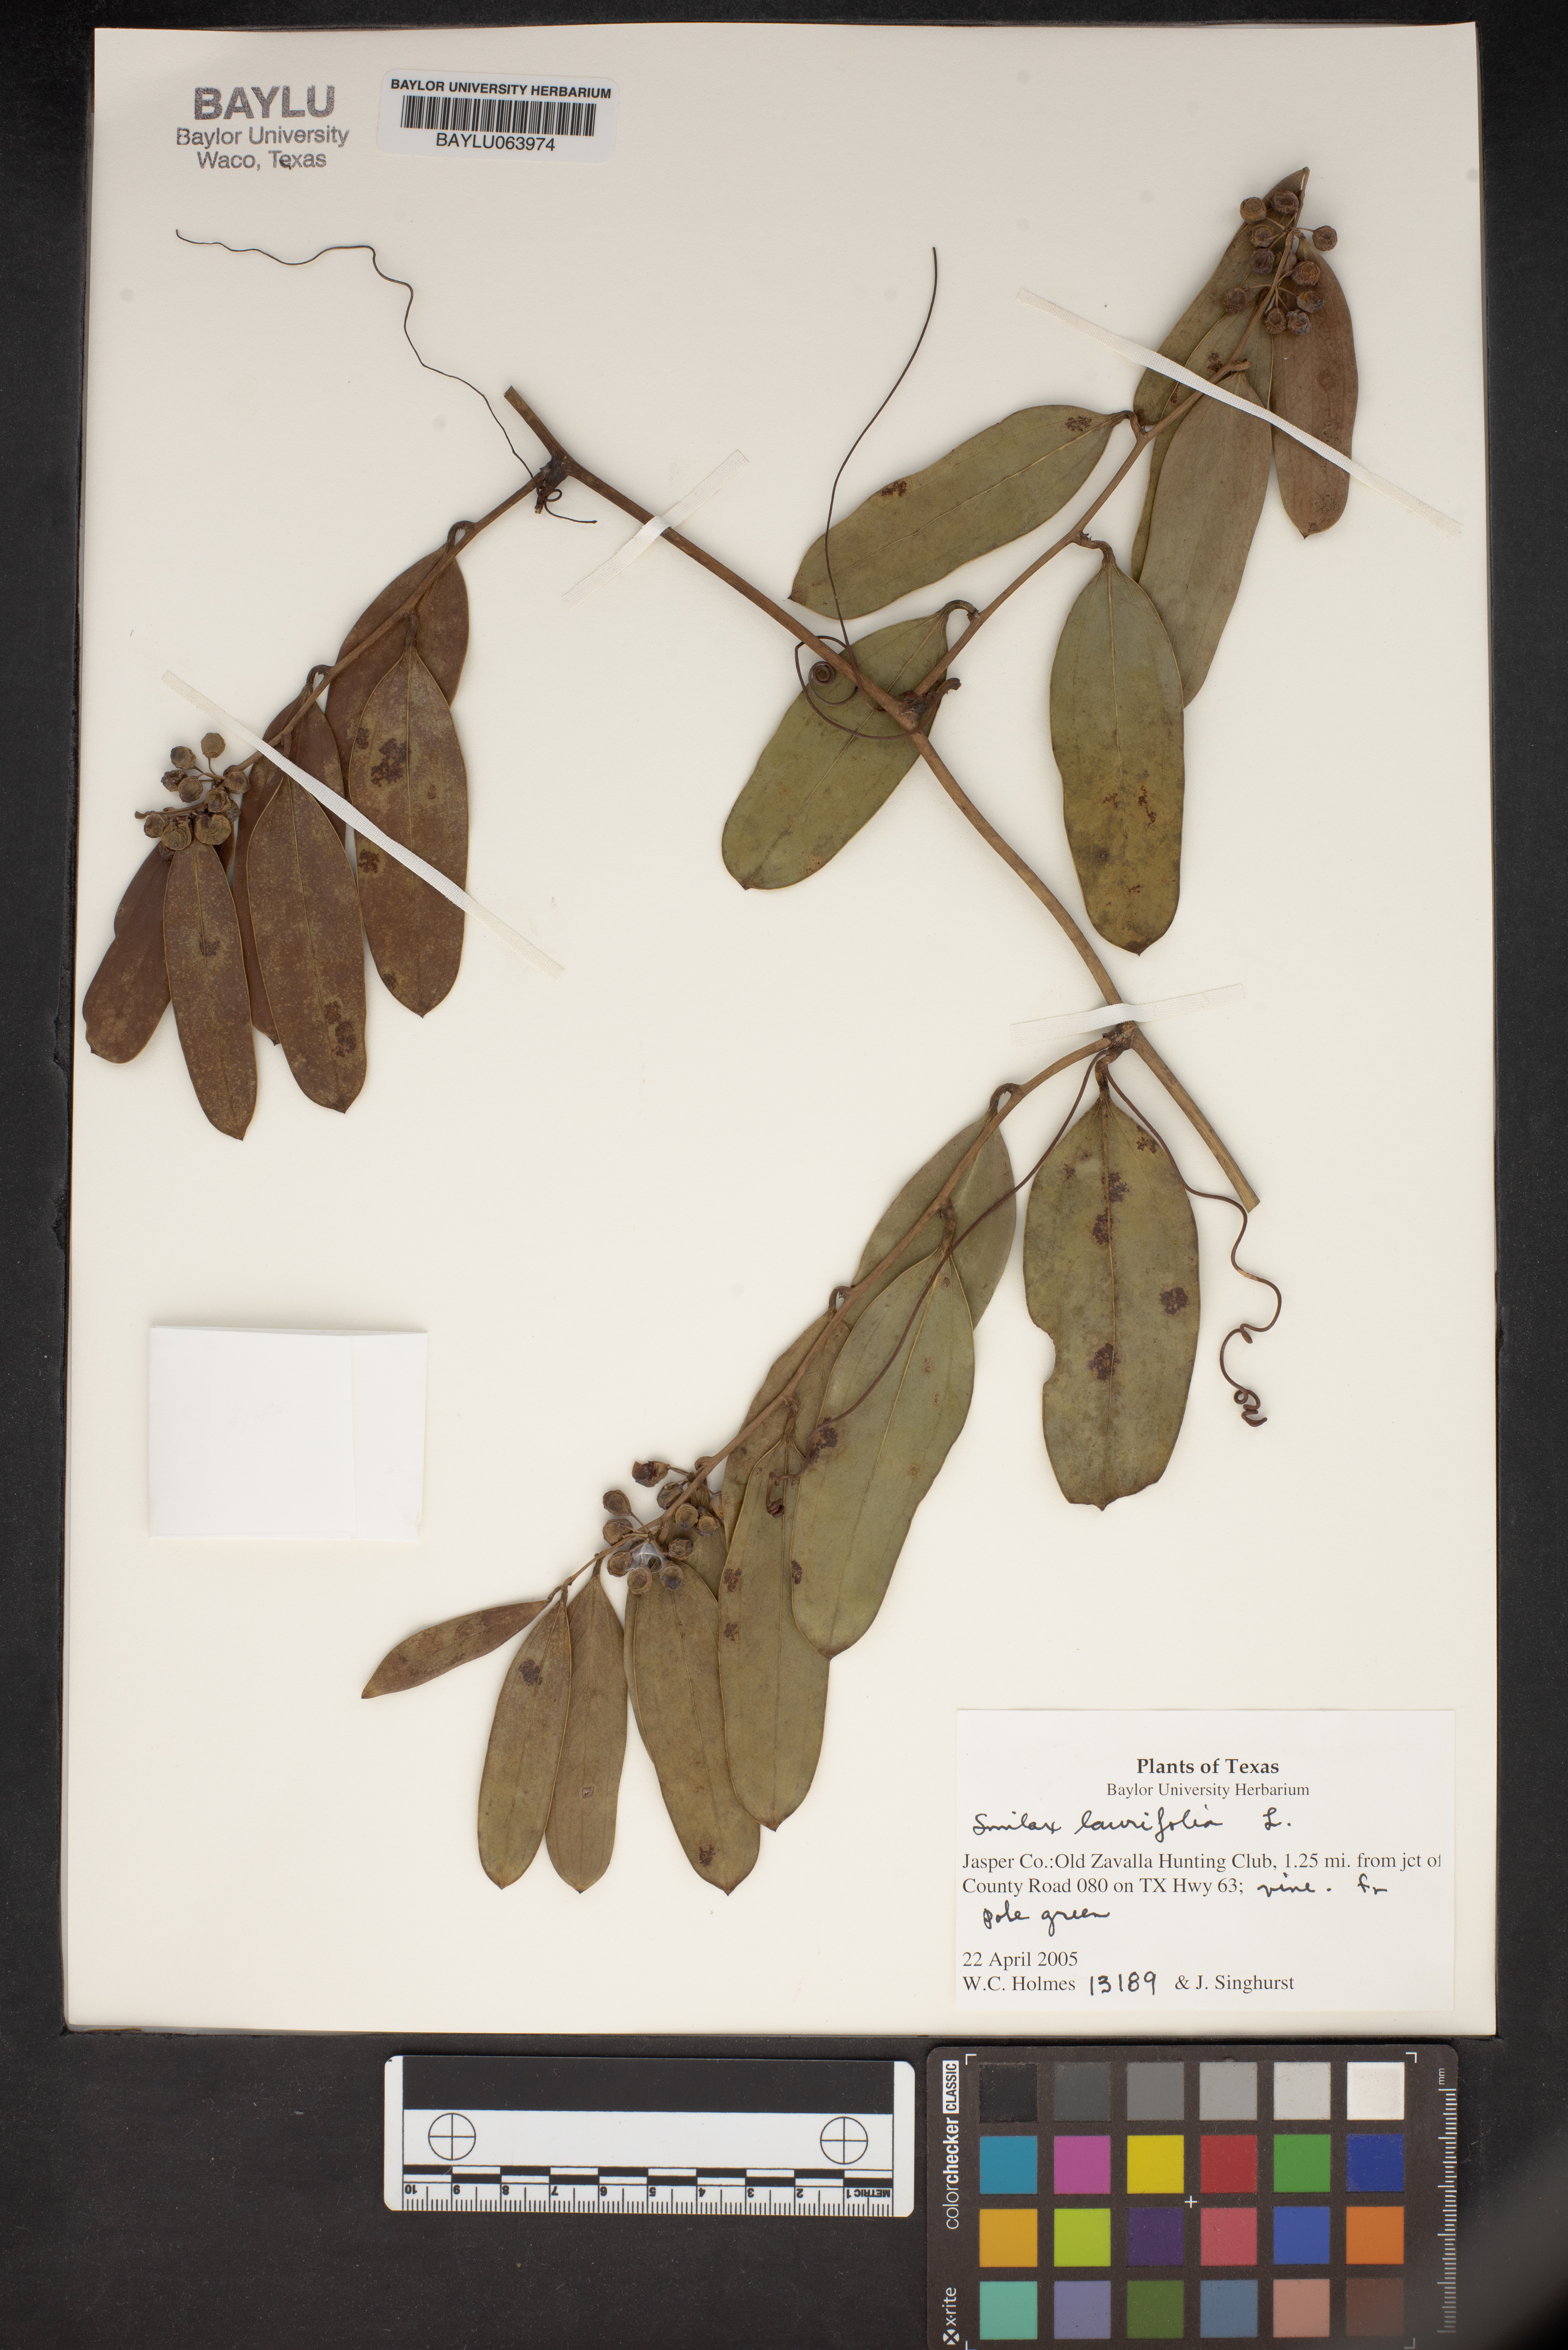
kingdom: Plantae
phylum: Tracheophyta
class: Liliopsida
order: Liliales
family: Smilacaceae
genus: Smilax
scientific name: Smilax laurifolia
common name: Bamboovine
